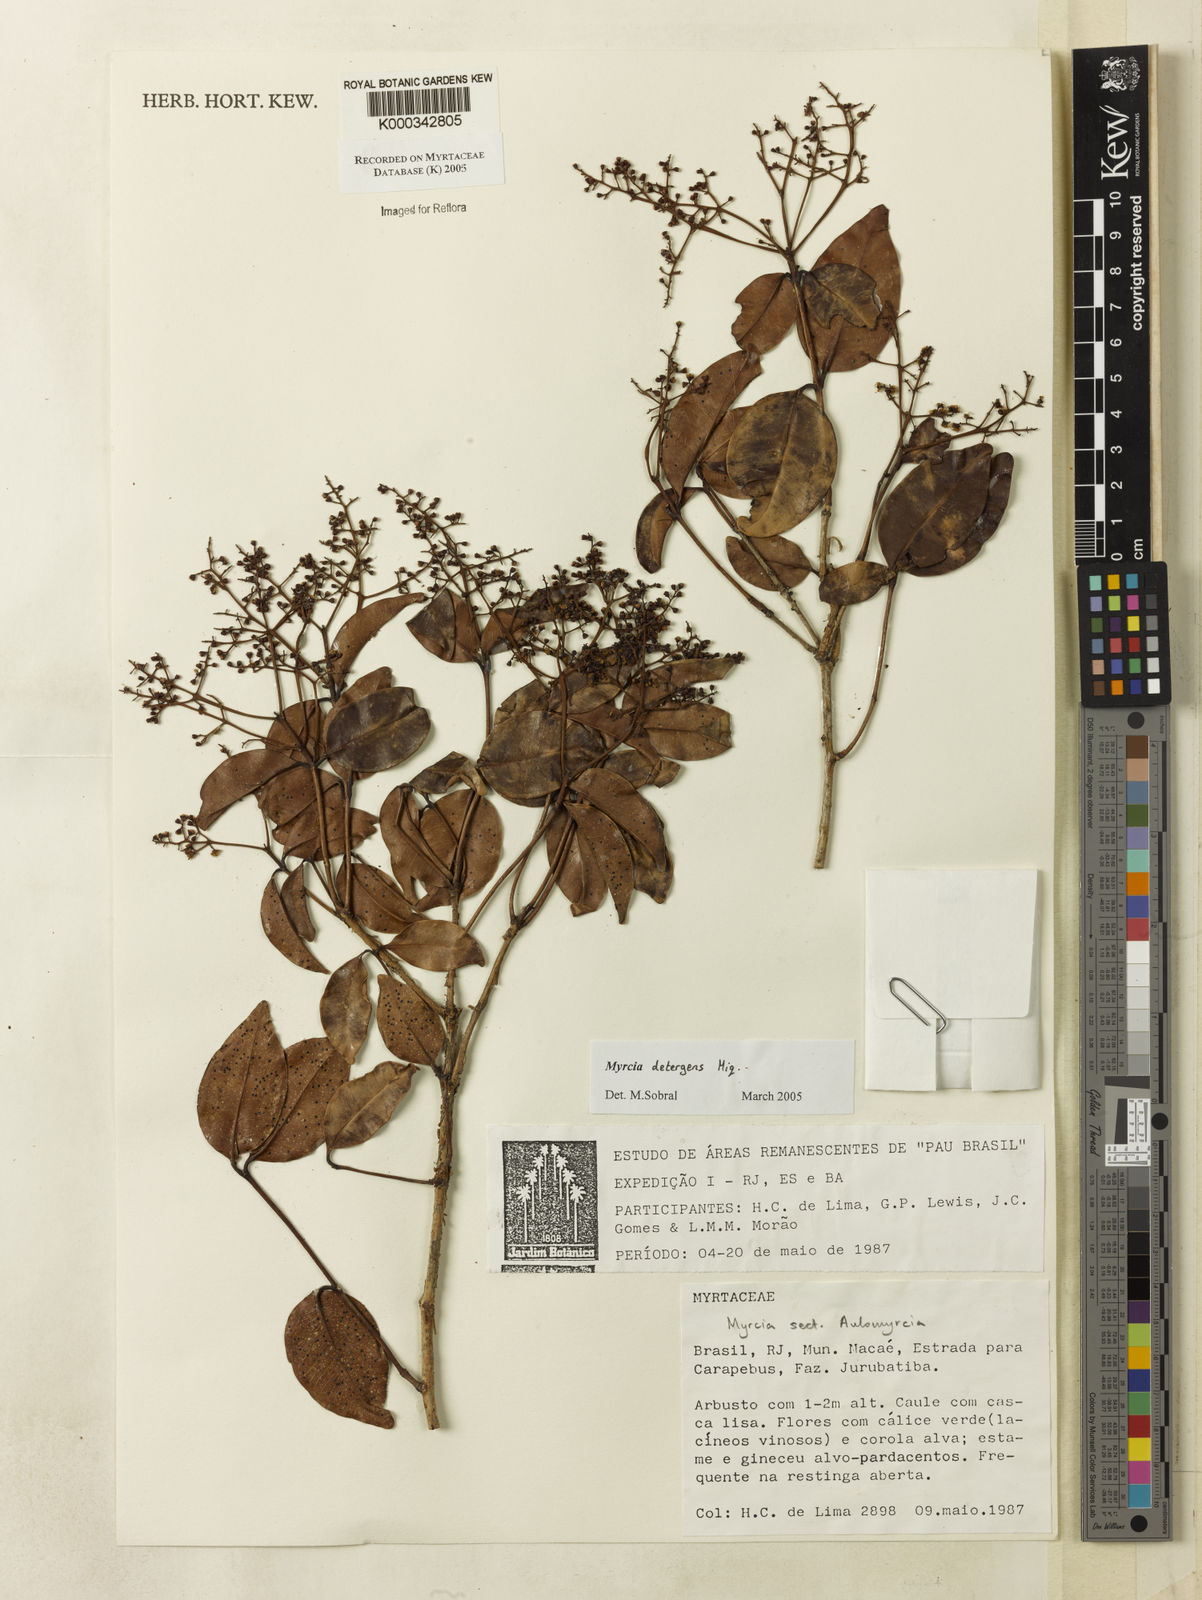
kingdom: Plantae
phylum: Tracheophyta
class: Magnoliopsida
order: Myrtales
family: Myrtaceae
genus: Myrcia
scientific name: Myrcia amazonica
